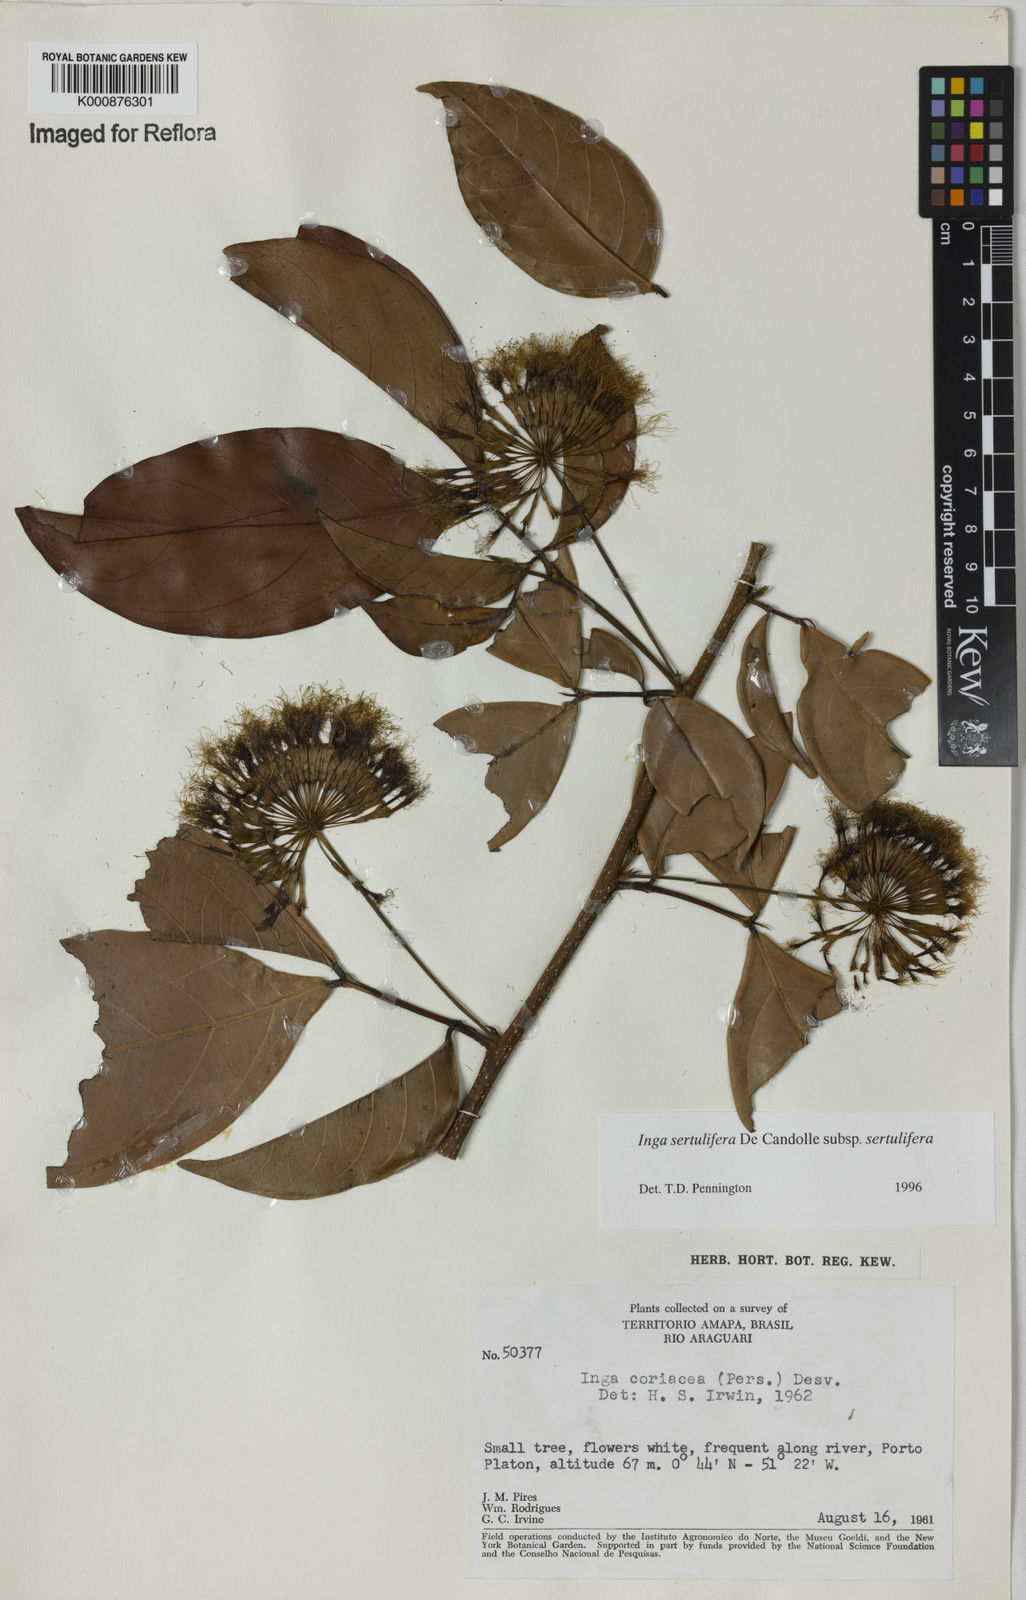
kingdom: Plantae
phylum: Tracheophyta
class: Magnoliopsida
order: Fabales
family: Fabaceae
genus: Inga
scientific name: Inga sertulifera
